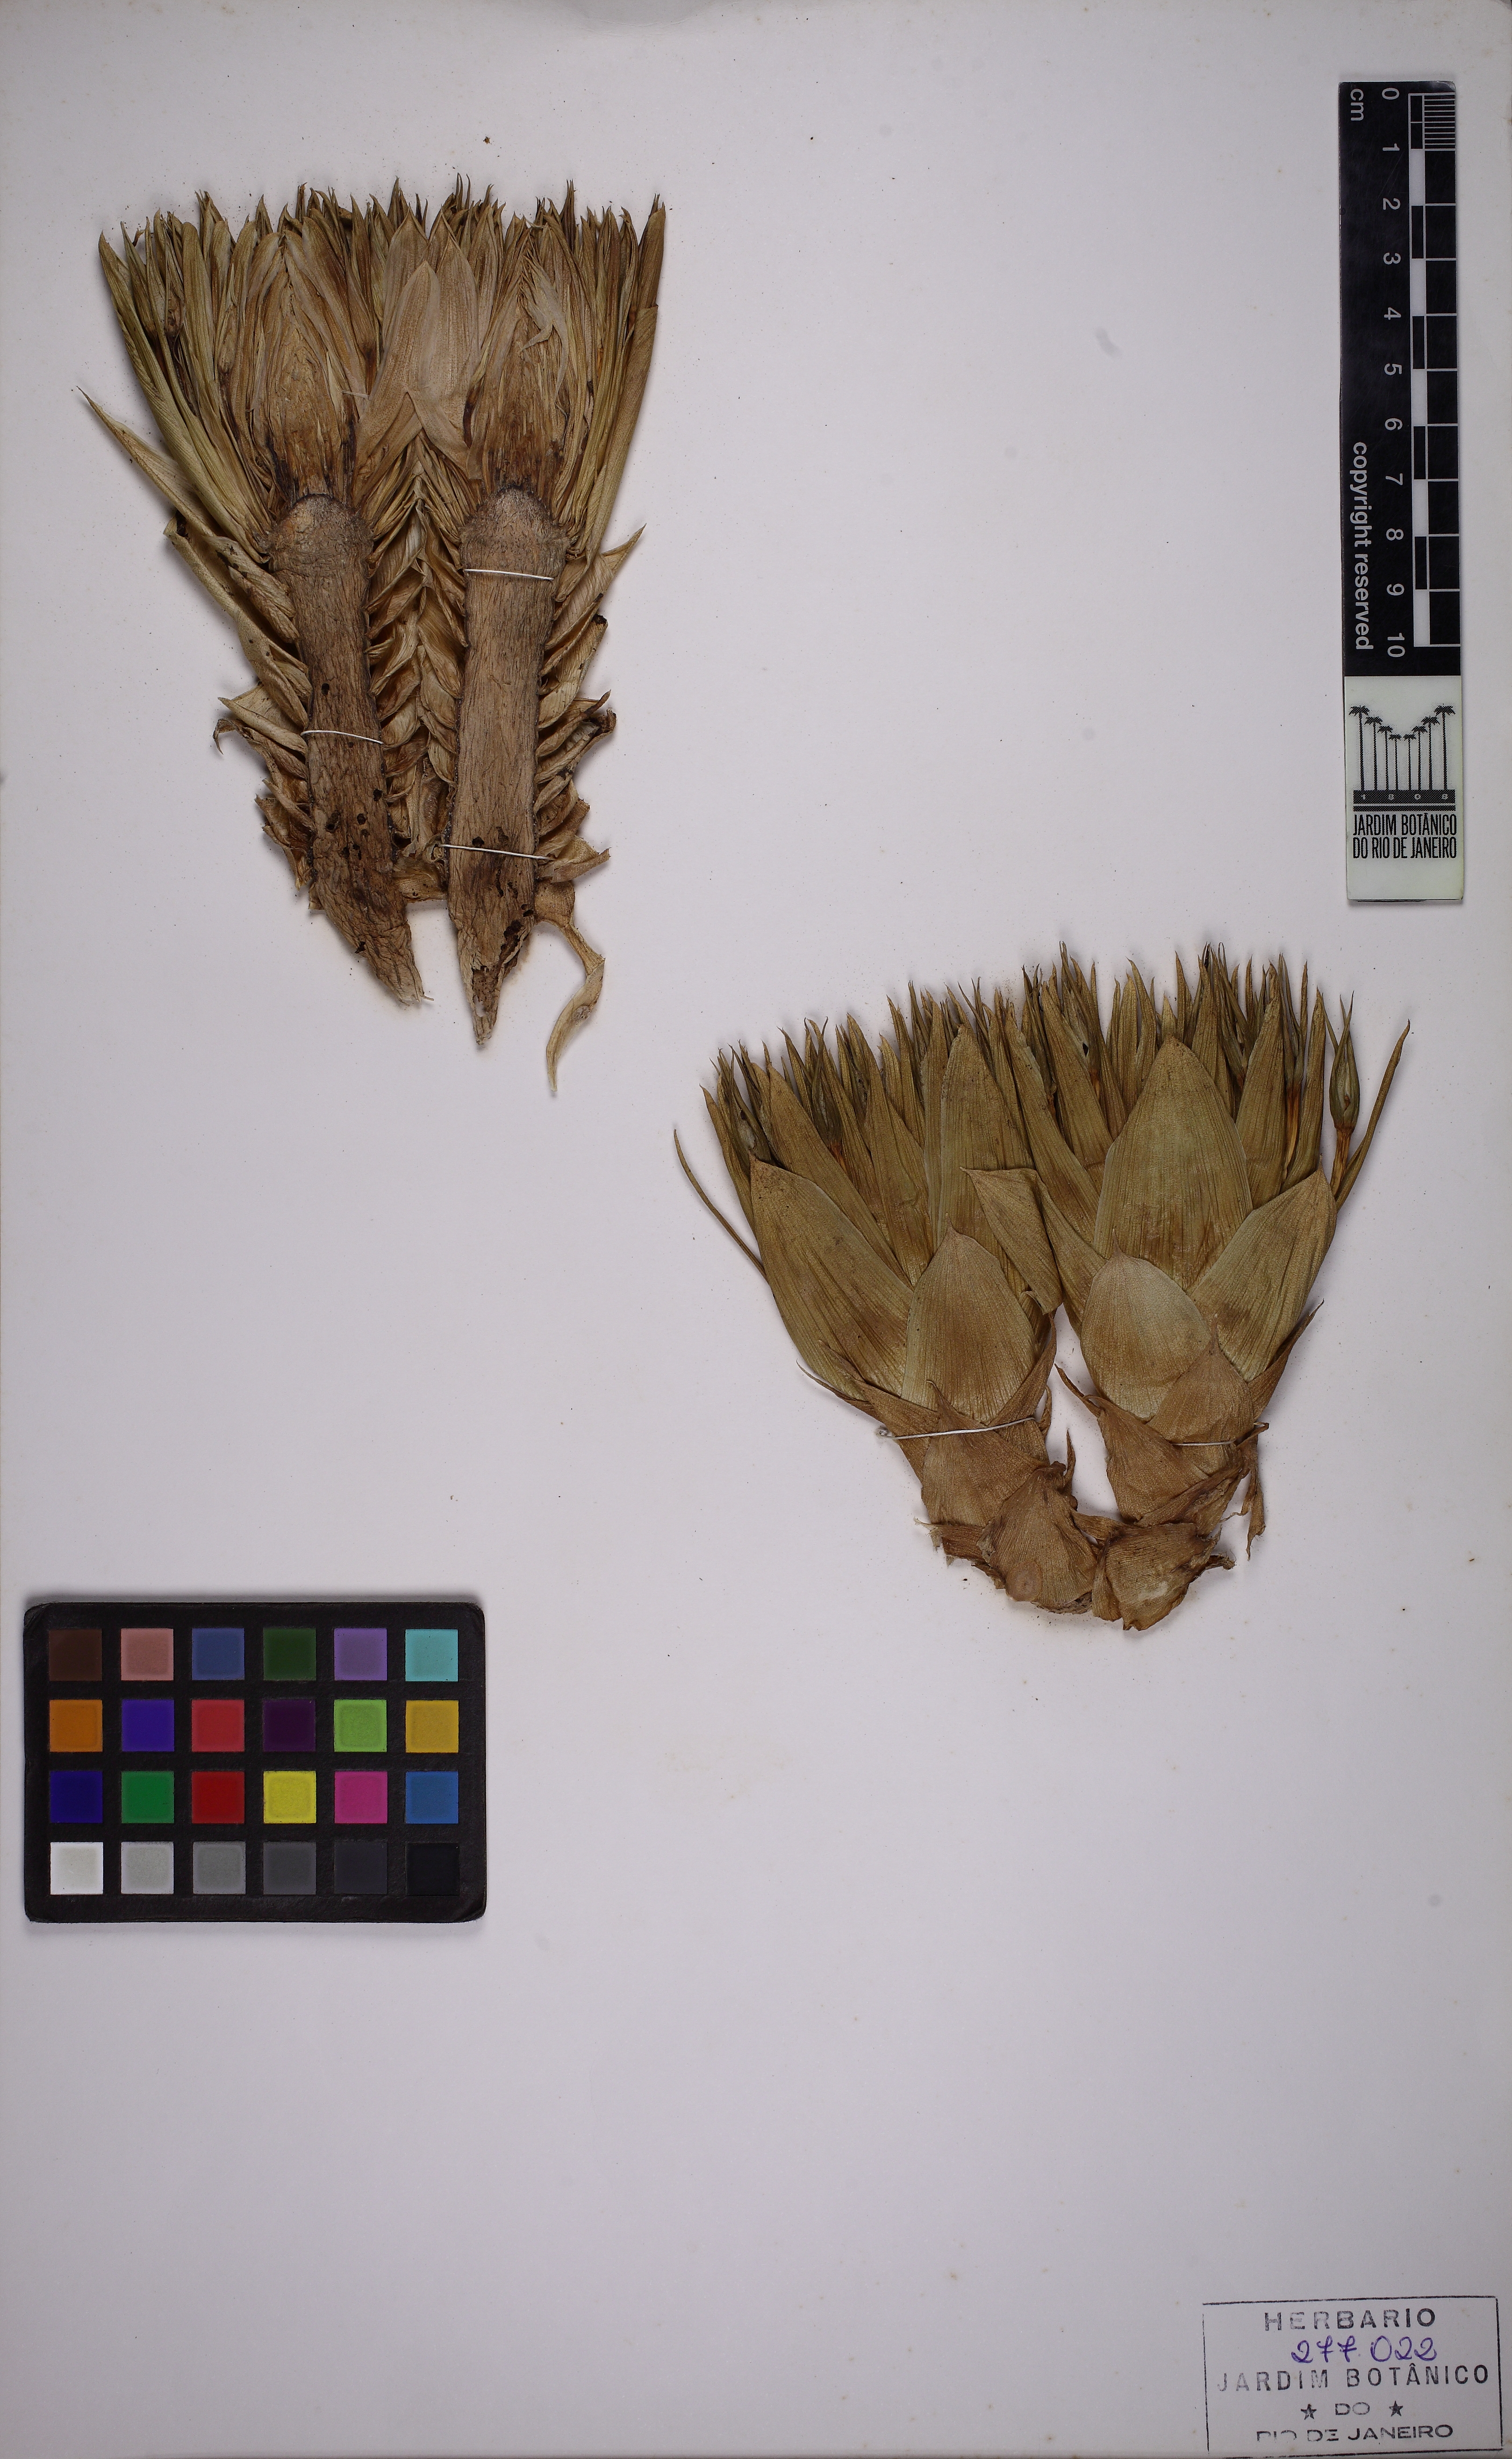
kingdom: Plantae
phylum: Tracheophyta
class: Liliopsida
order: Poales
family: Bromeliaceae
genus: Neoregelia
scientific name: Neoregelia marmorata
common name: Marbleplant
